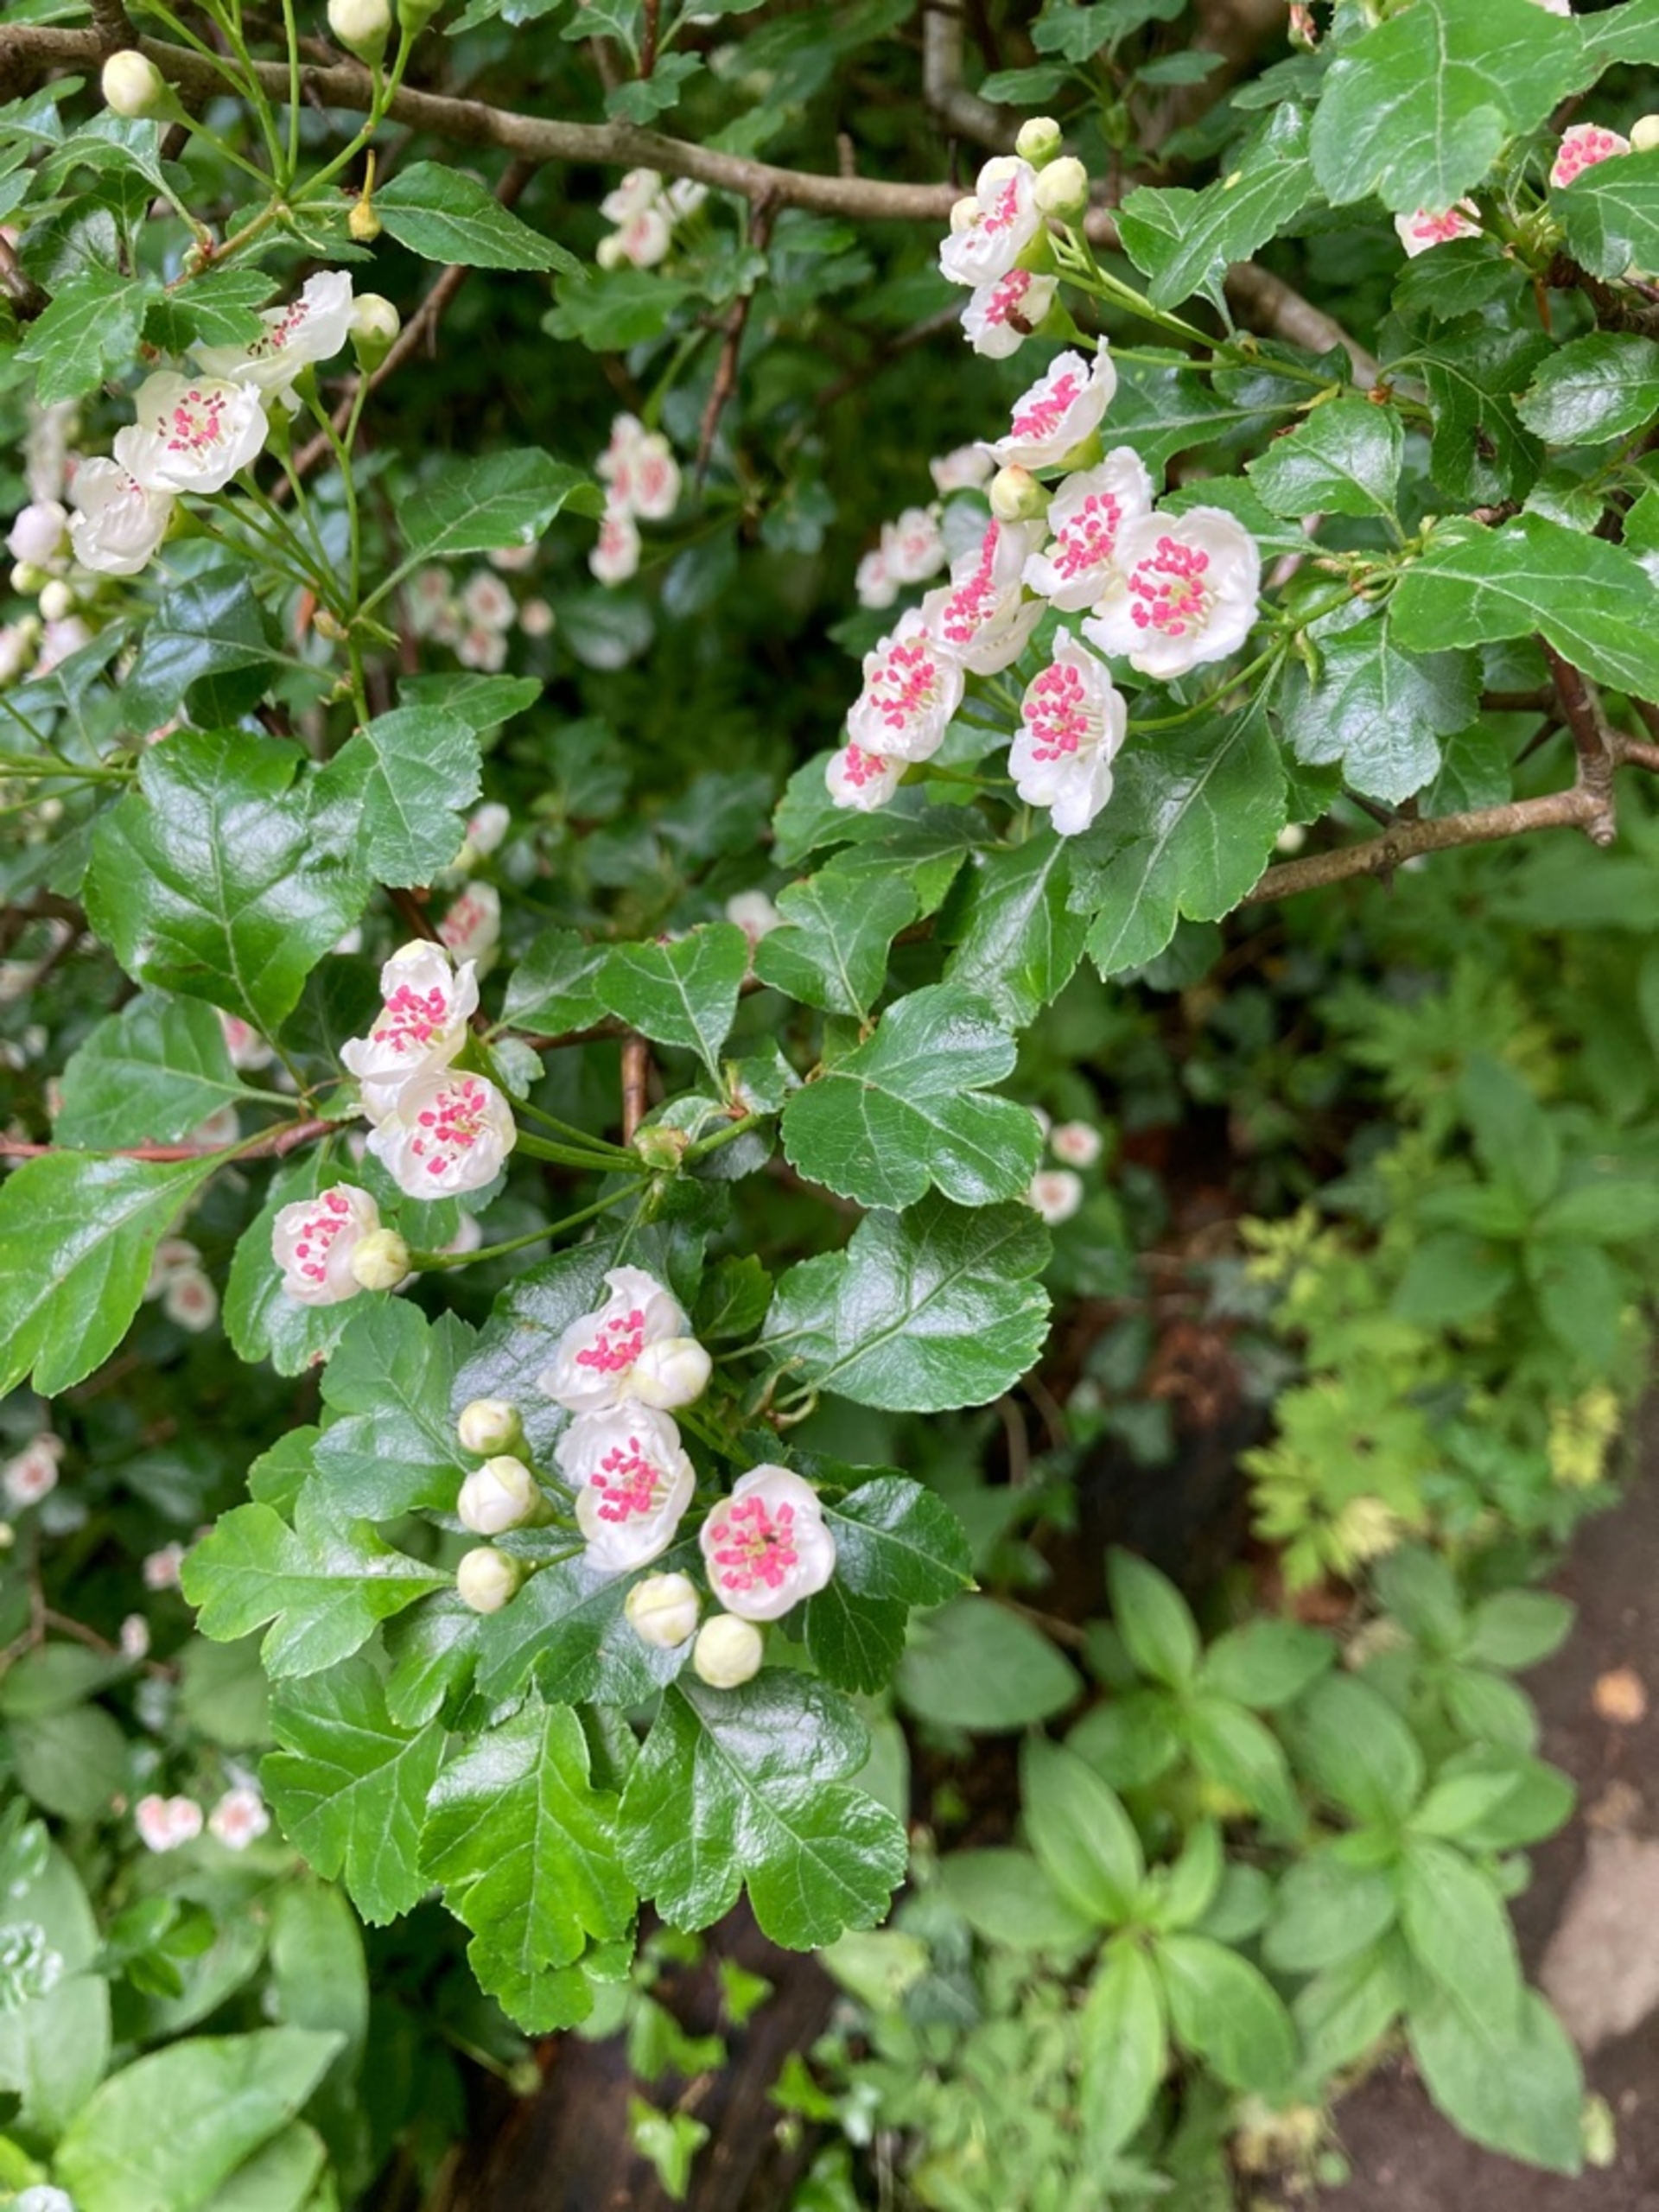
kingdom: Plantae
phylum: Tracheophyta
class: Magnoliopsida
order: Rosales
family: Rosaceae
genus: Crataegus
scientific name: Crataegus laevigata
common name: Almindelig hvidtjørn
